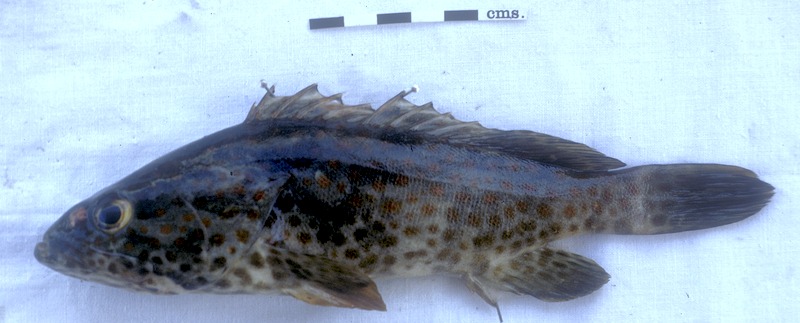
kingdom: Animalia
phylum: Chordata
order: Perciformes
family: Serranidae
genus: Epinephelus
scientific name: Epinephelus merra
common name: Honeycomb grouper
